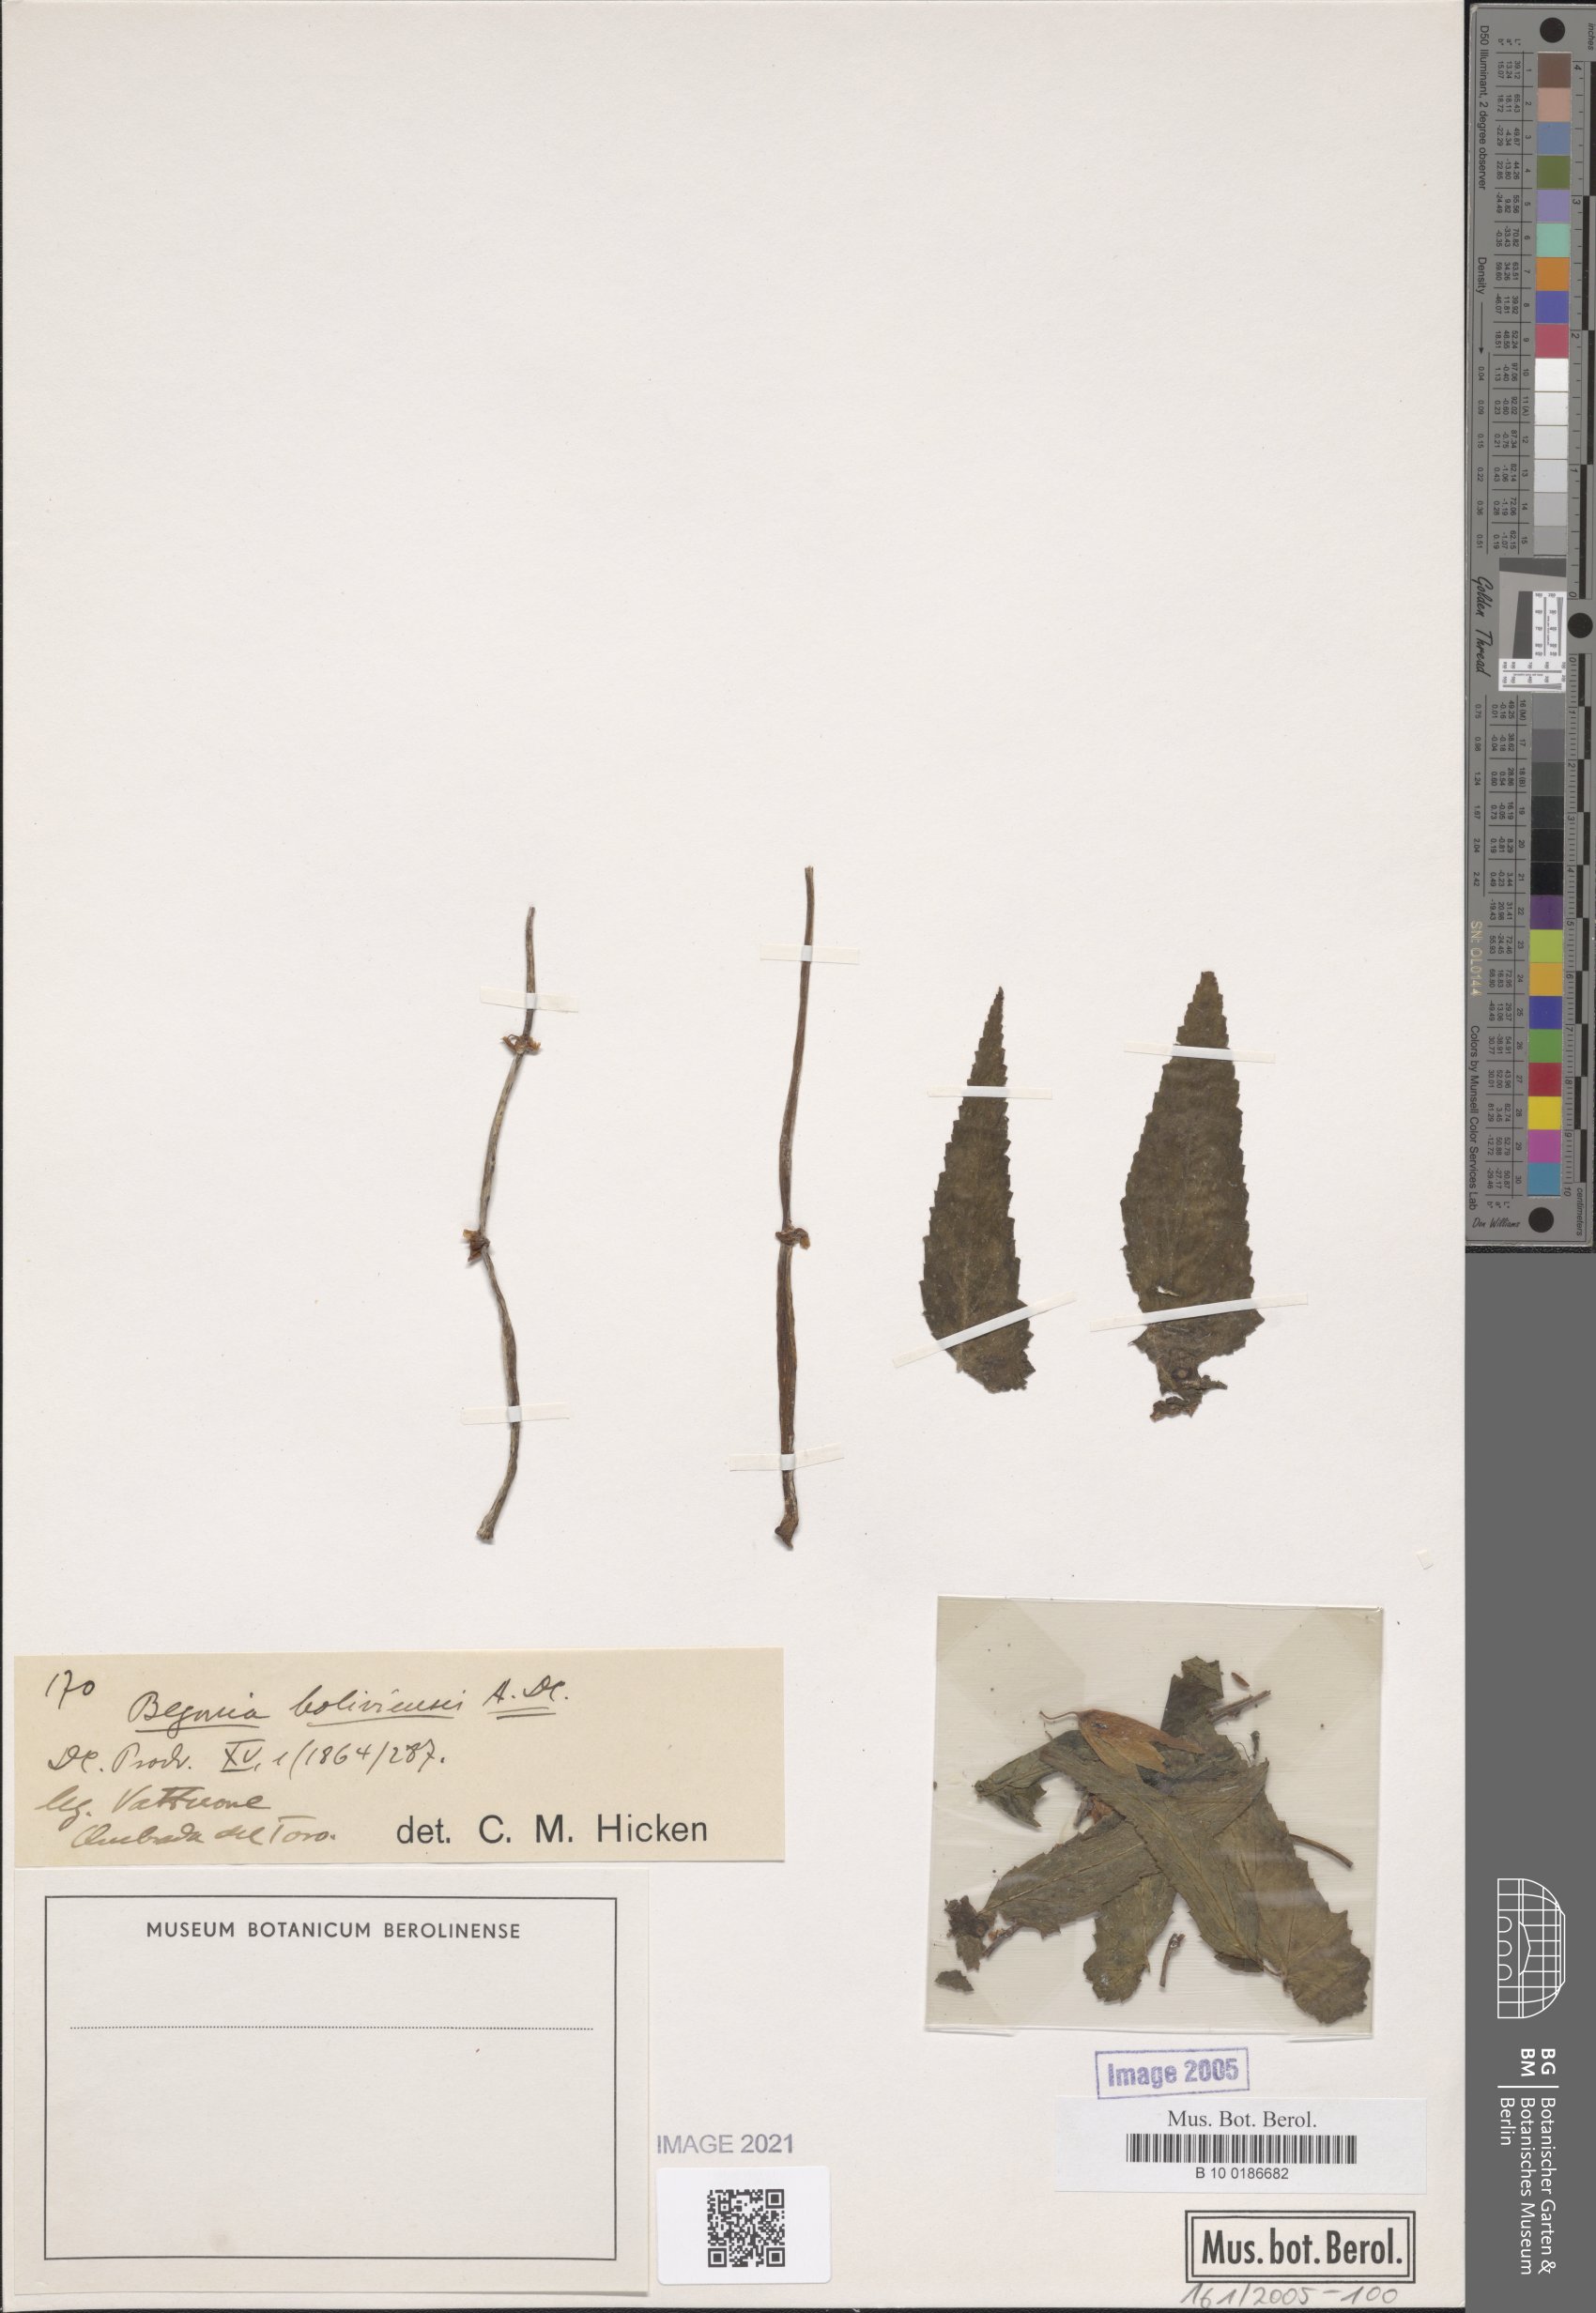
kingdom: Plantae
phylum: Tracheophyta
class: Magnoliopsida
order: Cucurbitales
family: Begoniaceae
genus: Begonia
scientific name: Begonia boliviensis
